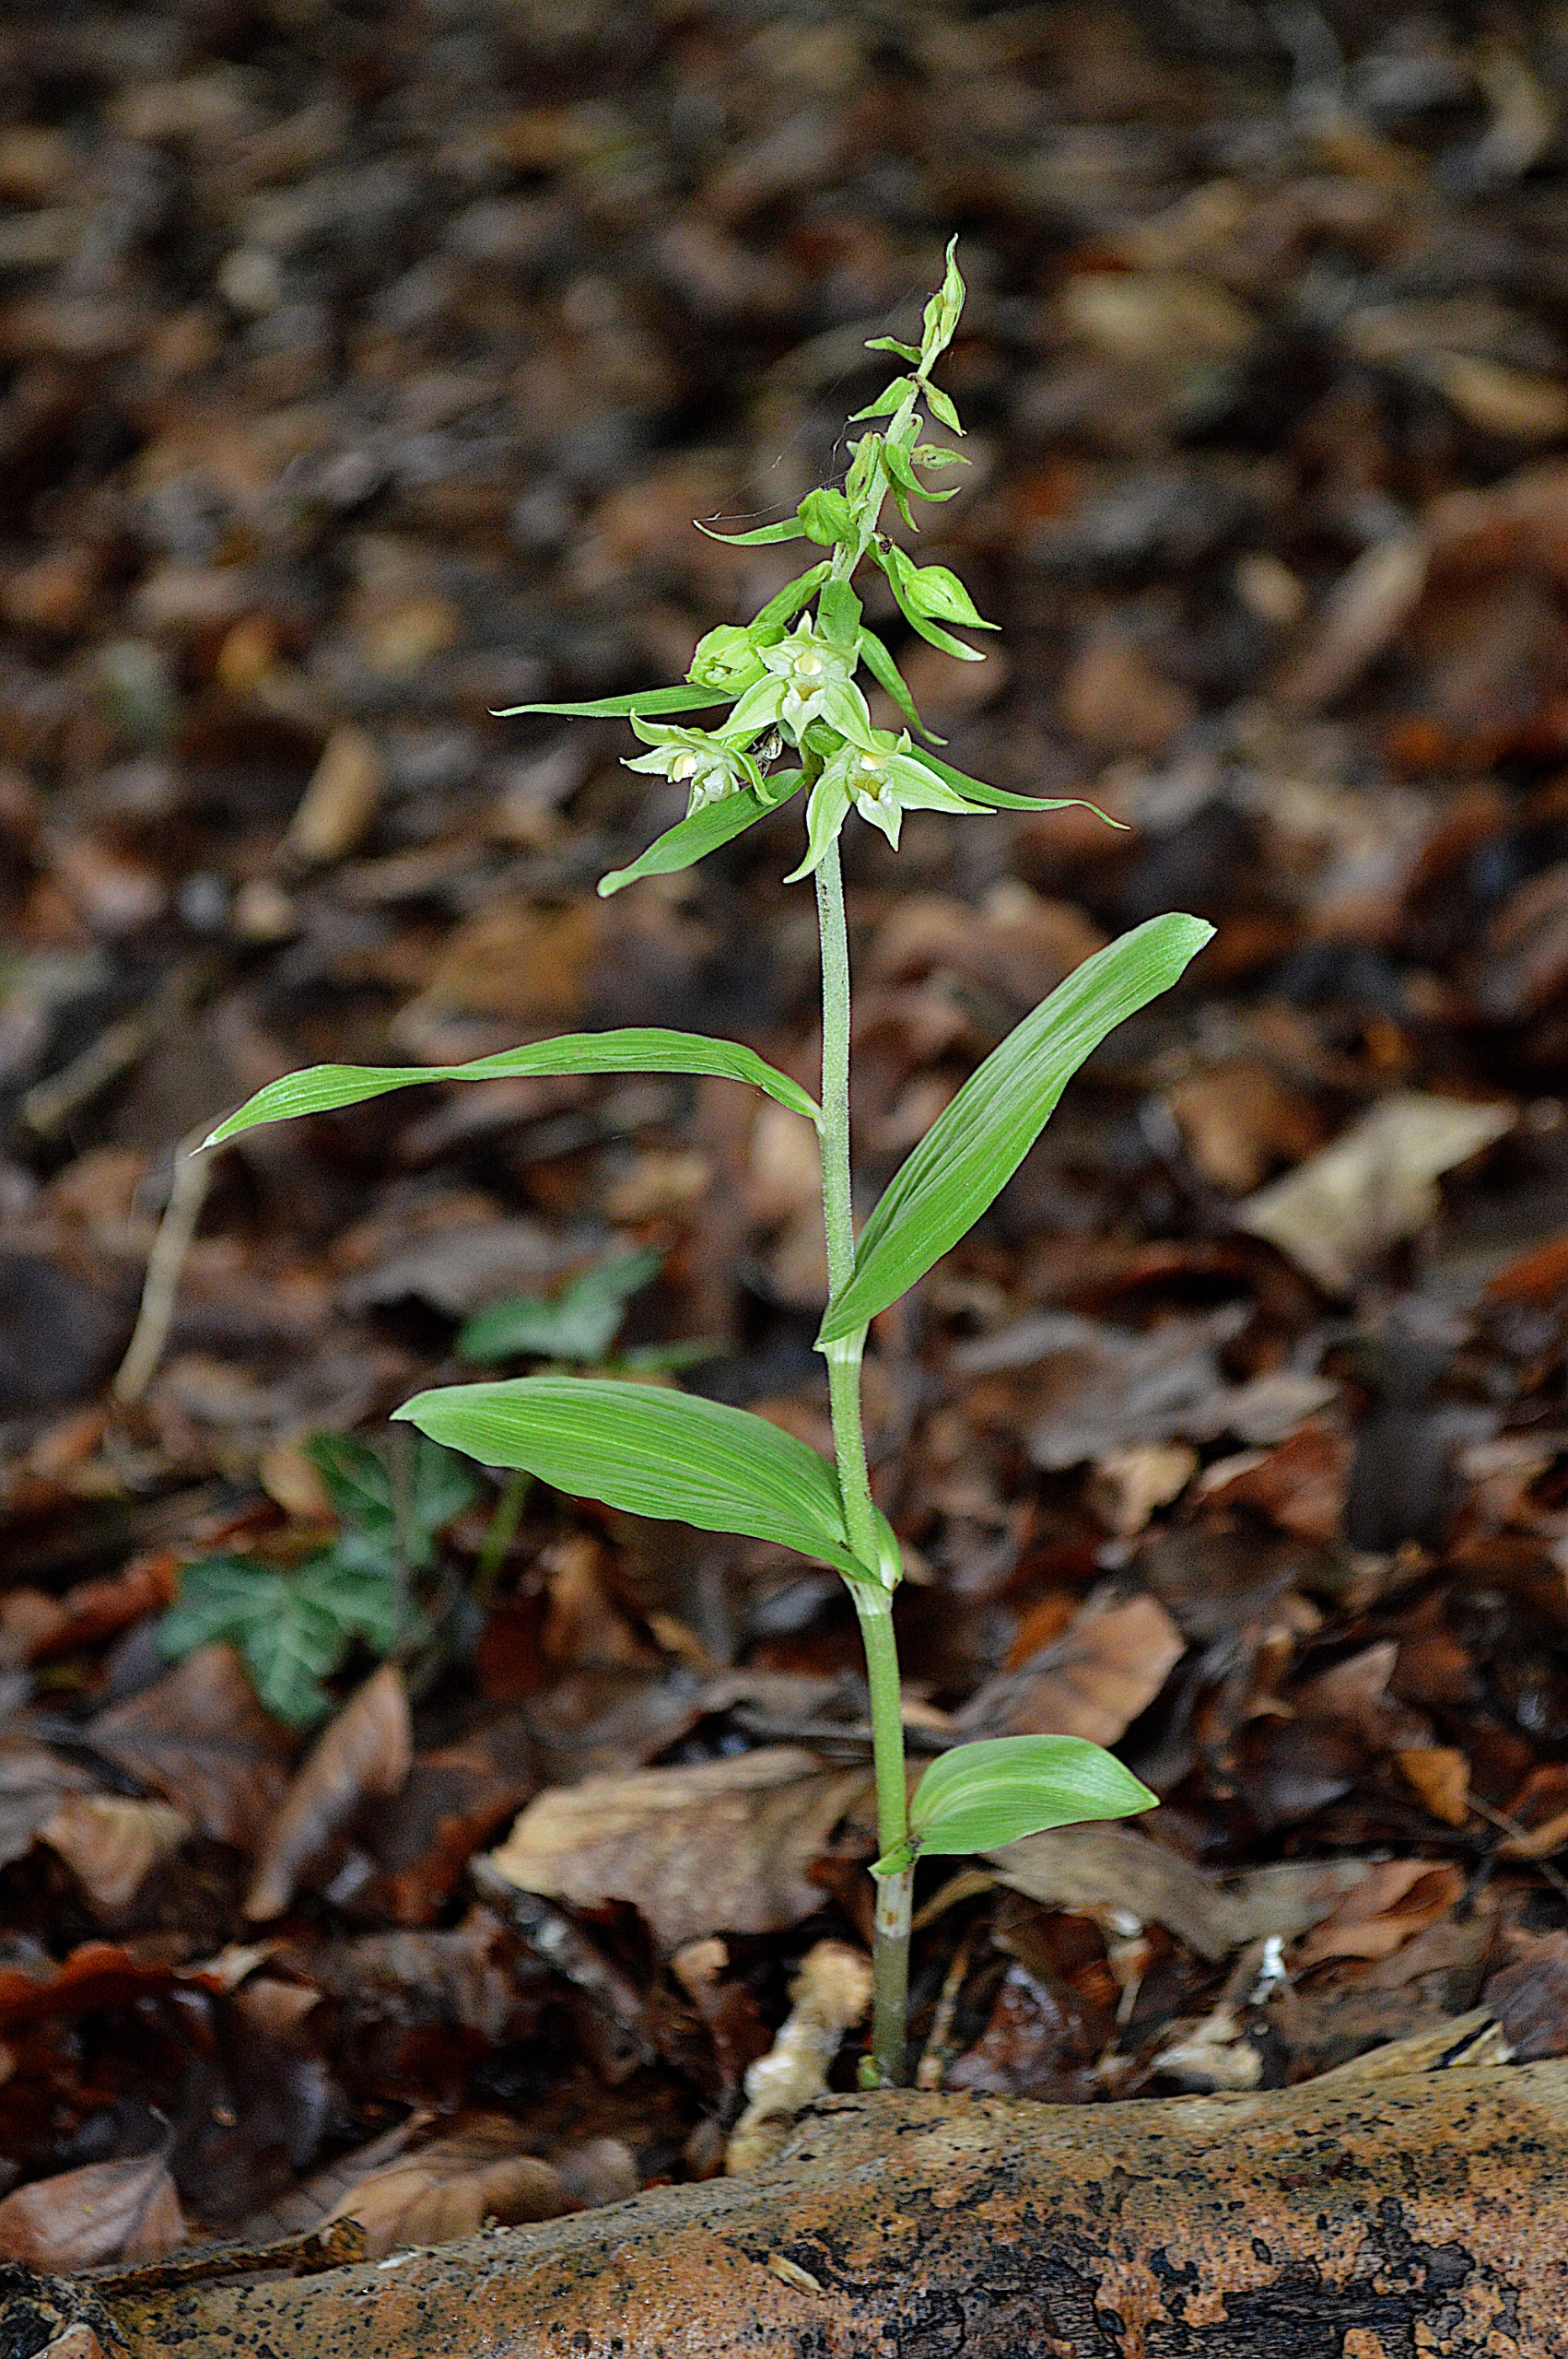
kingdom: Plantae
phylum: Tracheophyta
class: Liliopsida
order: Asparagales
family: Orchidaceae
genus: Epipactis
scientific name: Epipactis leptochila
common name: Storblomstret hullæbe
